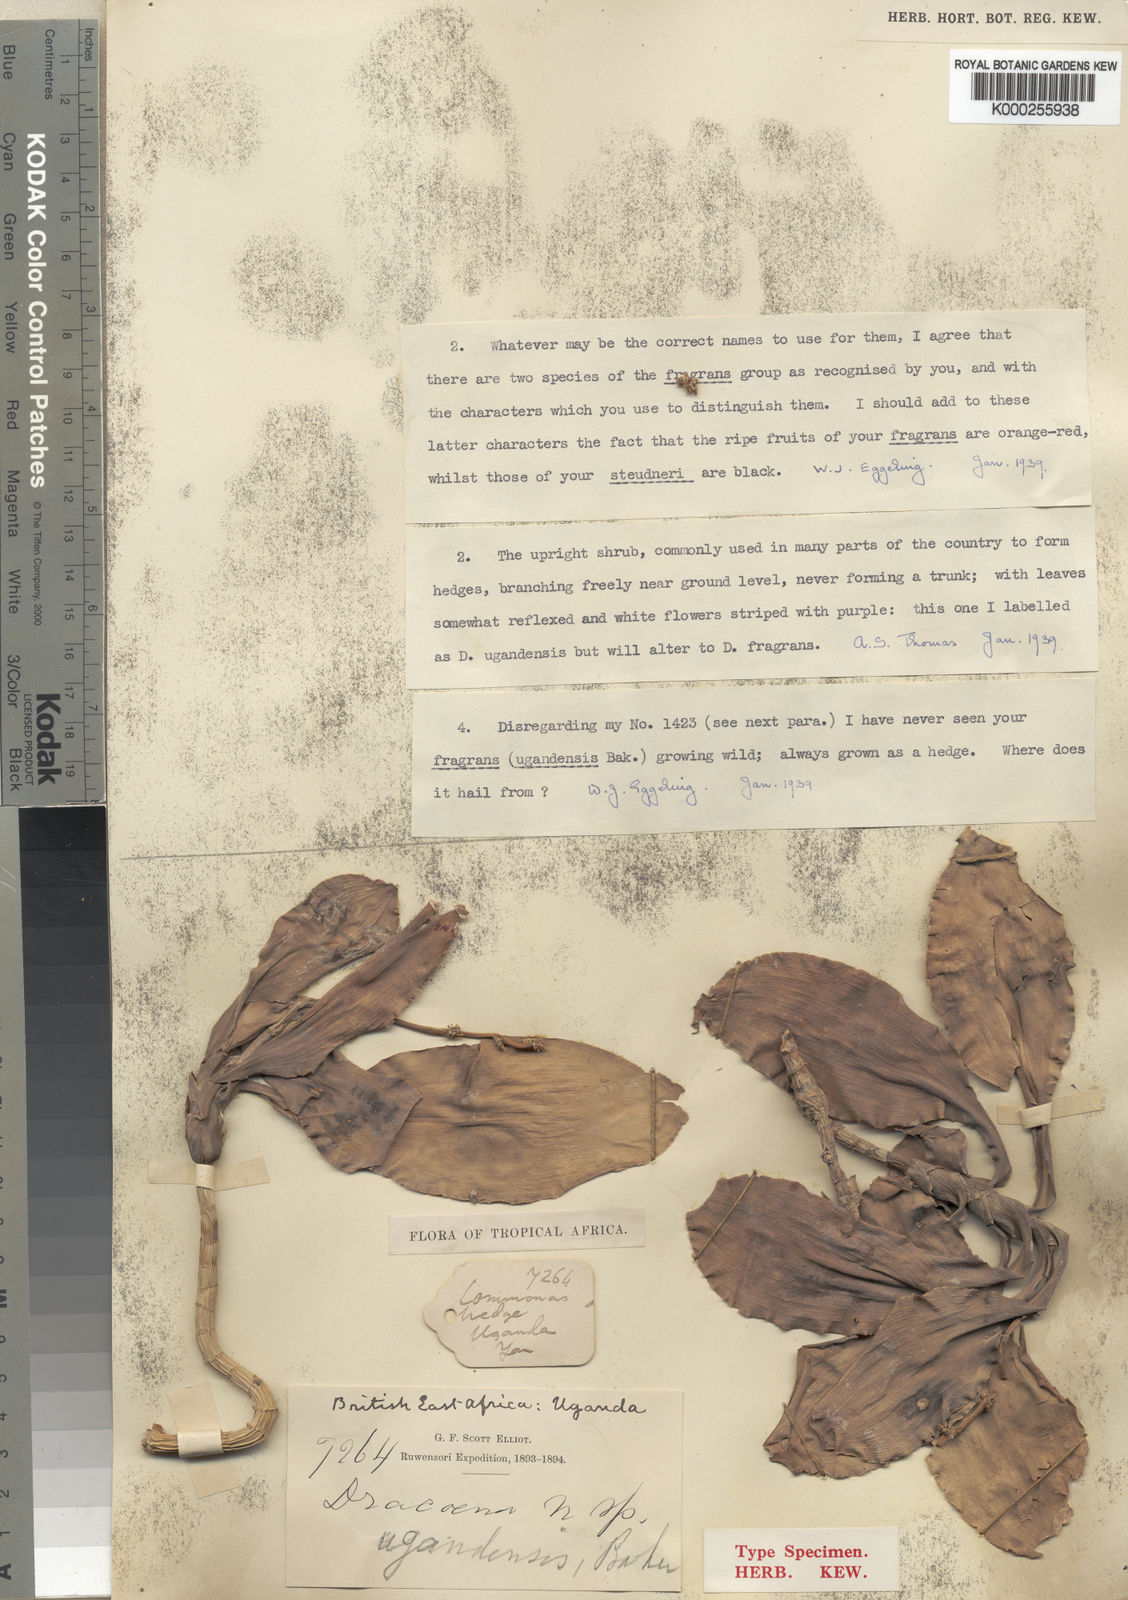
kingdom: Plantae
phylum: Tracheophyta
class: Liliopsida
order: Asparagales
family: Asparagaceae
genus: Dracaena
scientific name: Dracaena fragrans
